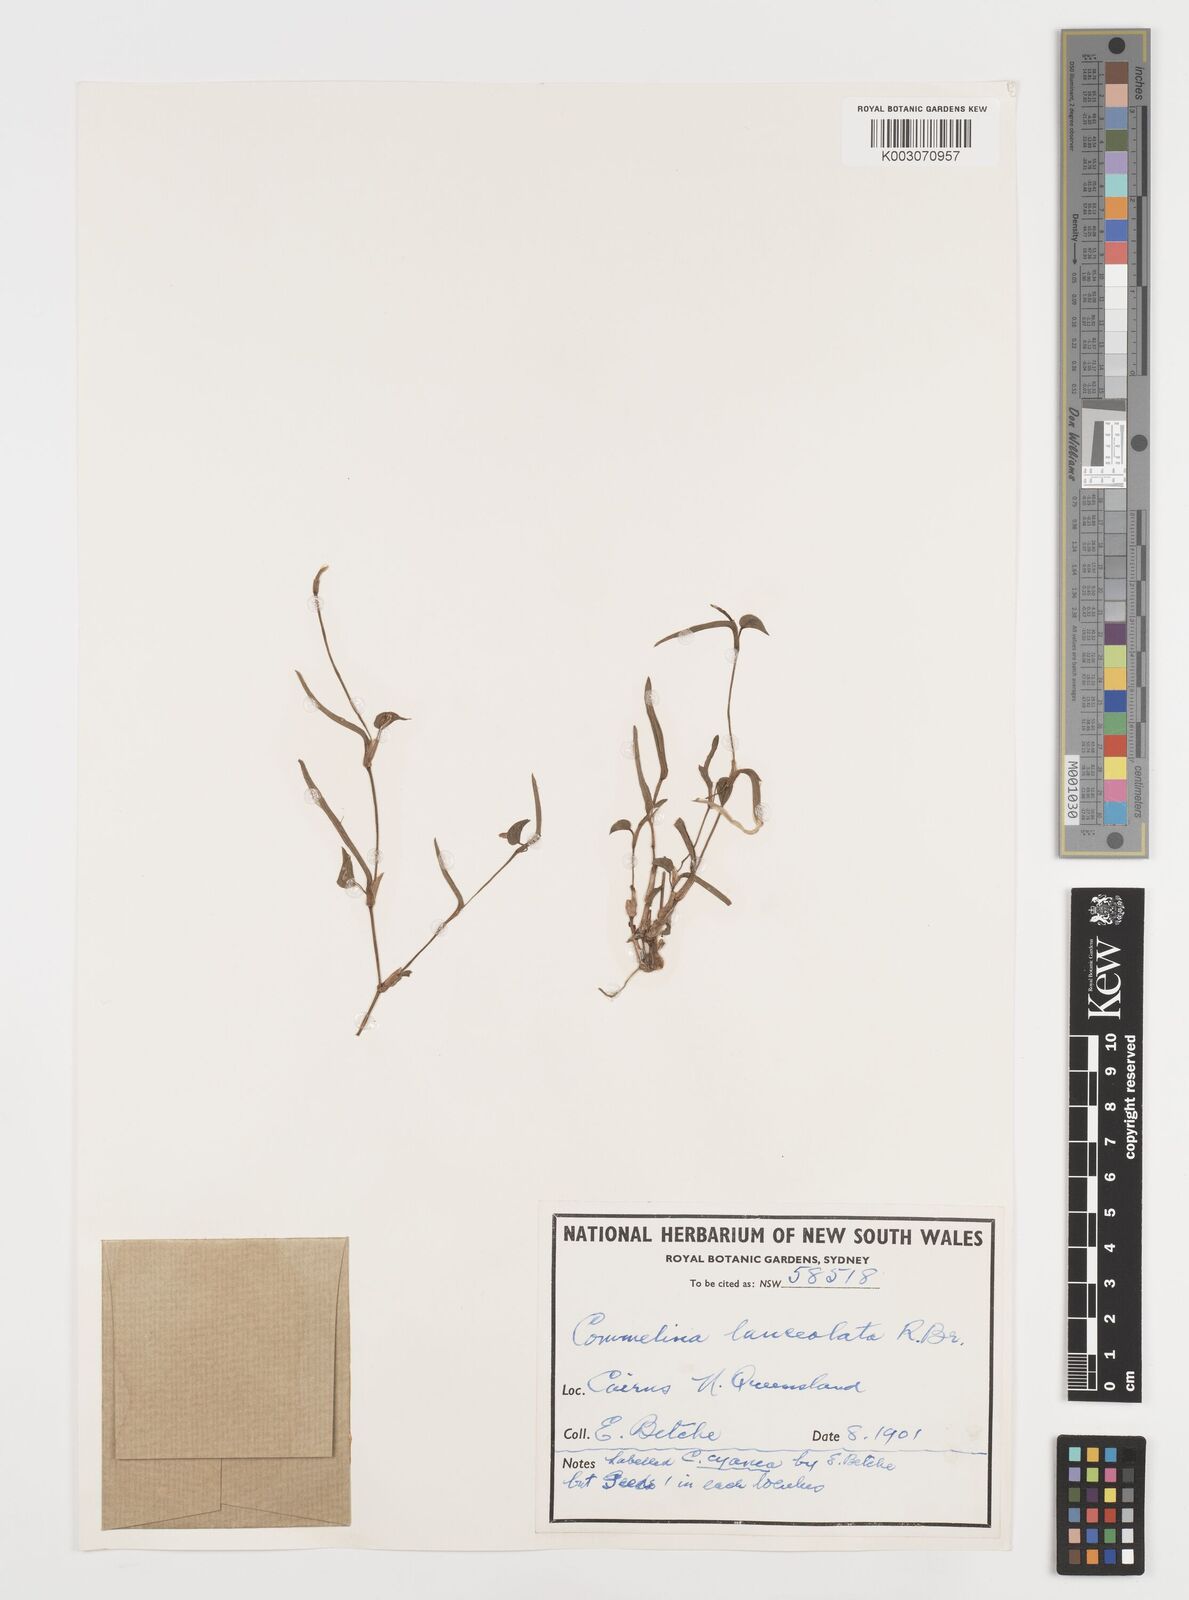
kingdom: Plantae
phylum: Tracheophyta
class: Liliopsida
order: Commelinales
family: Commelinaceae
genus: Commelina
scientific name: Commelina lanceolata
